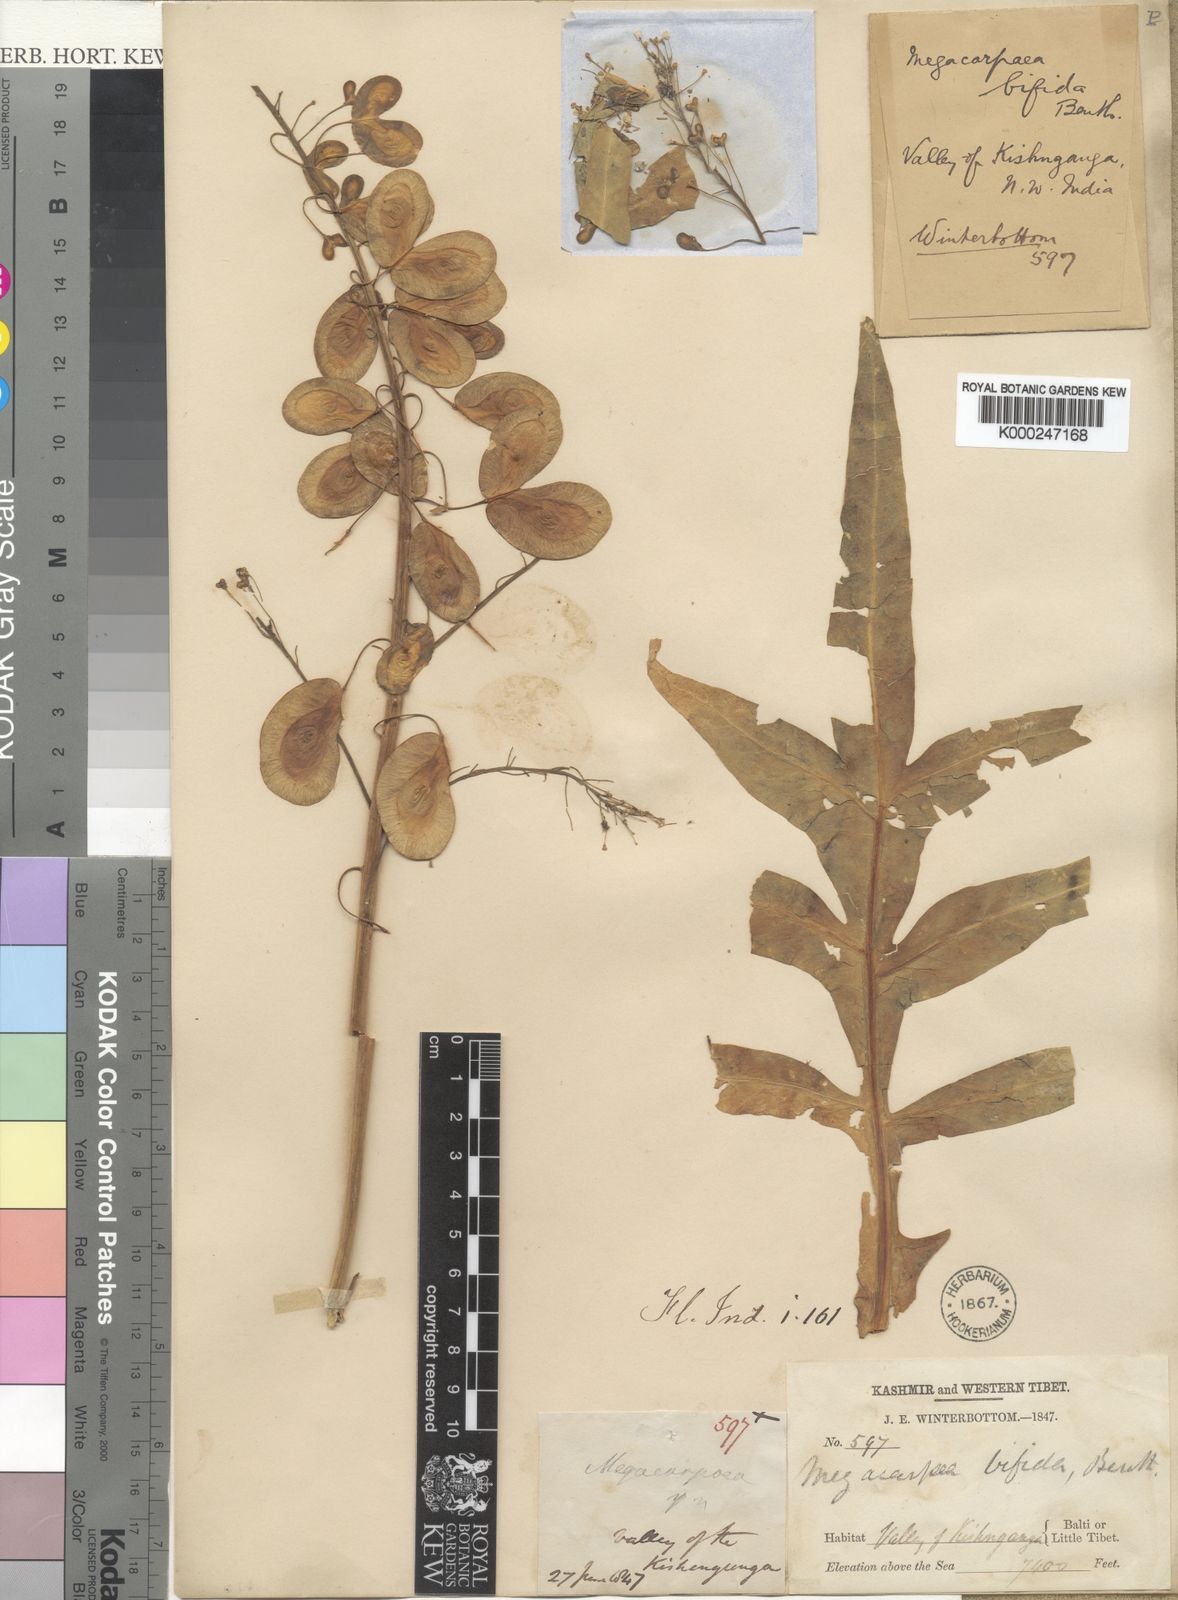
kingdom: Plantae
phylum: Tracheophyta
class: Magnoliopsida
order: Brassicales
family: Brassicaceae
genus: Megacarpaea
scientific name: Megacarpaea bifida
